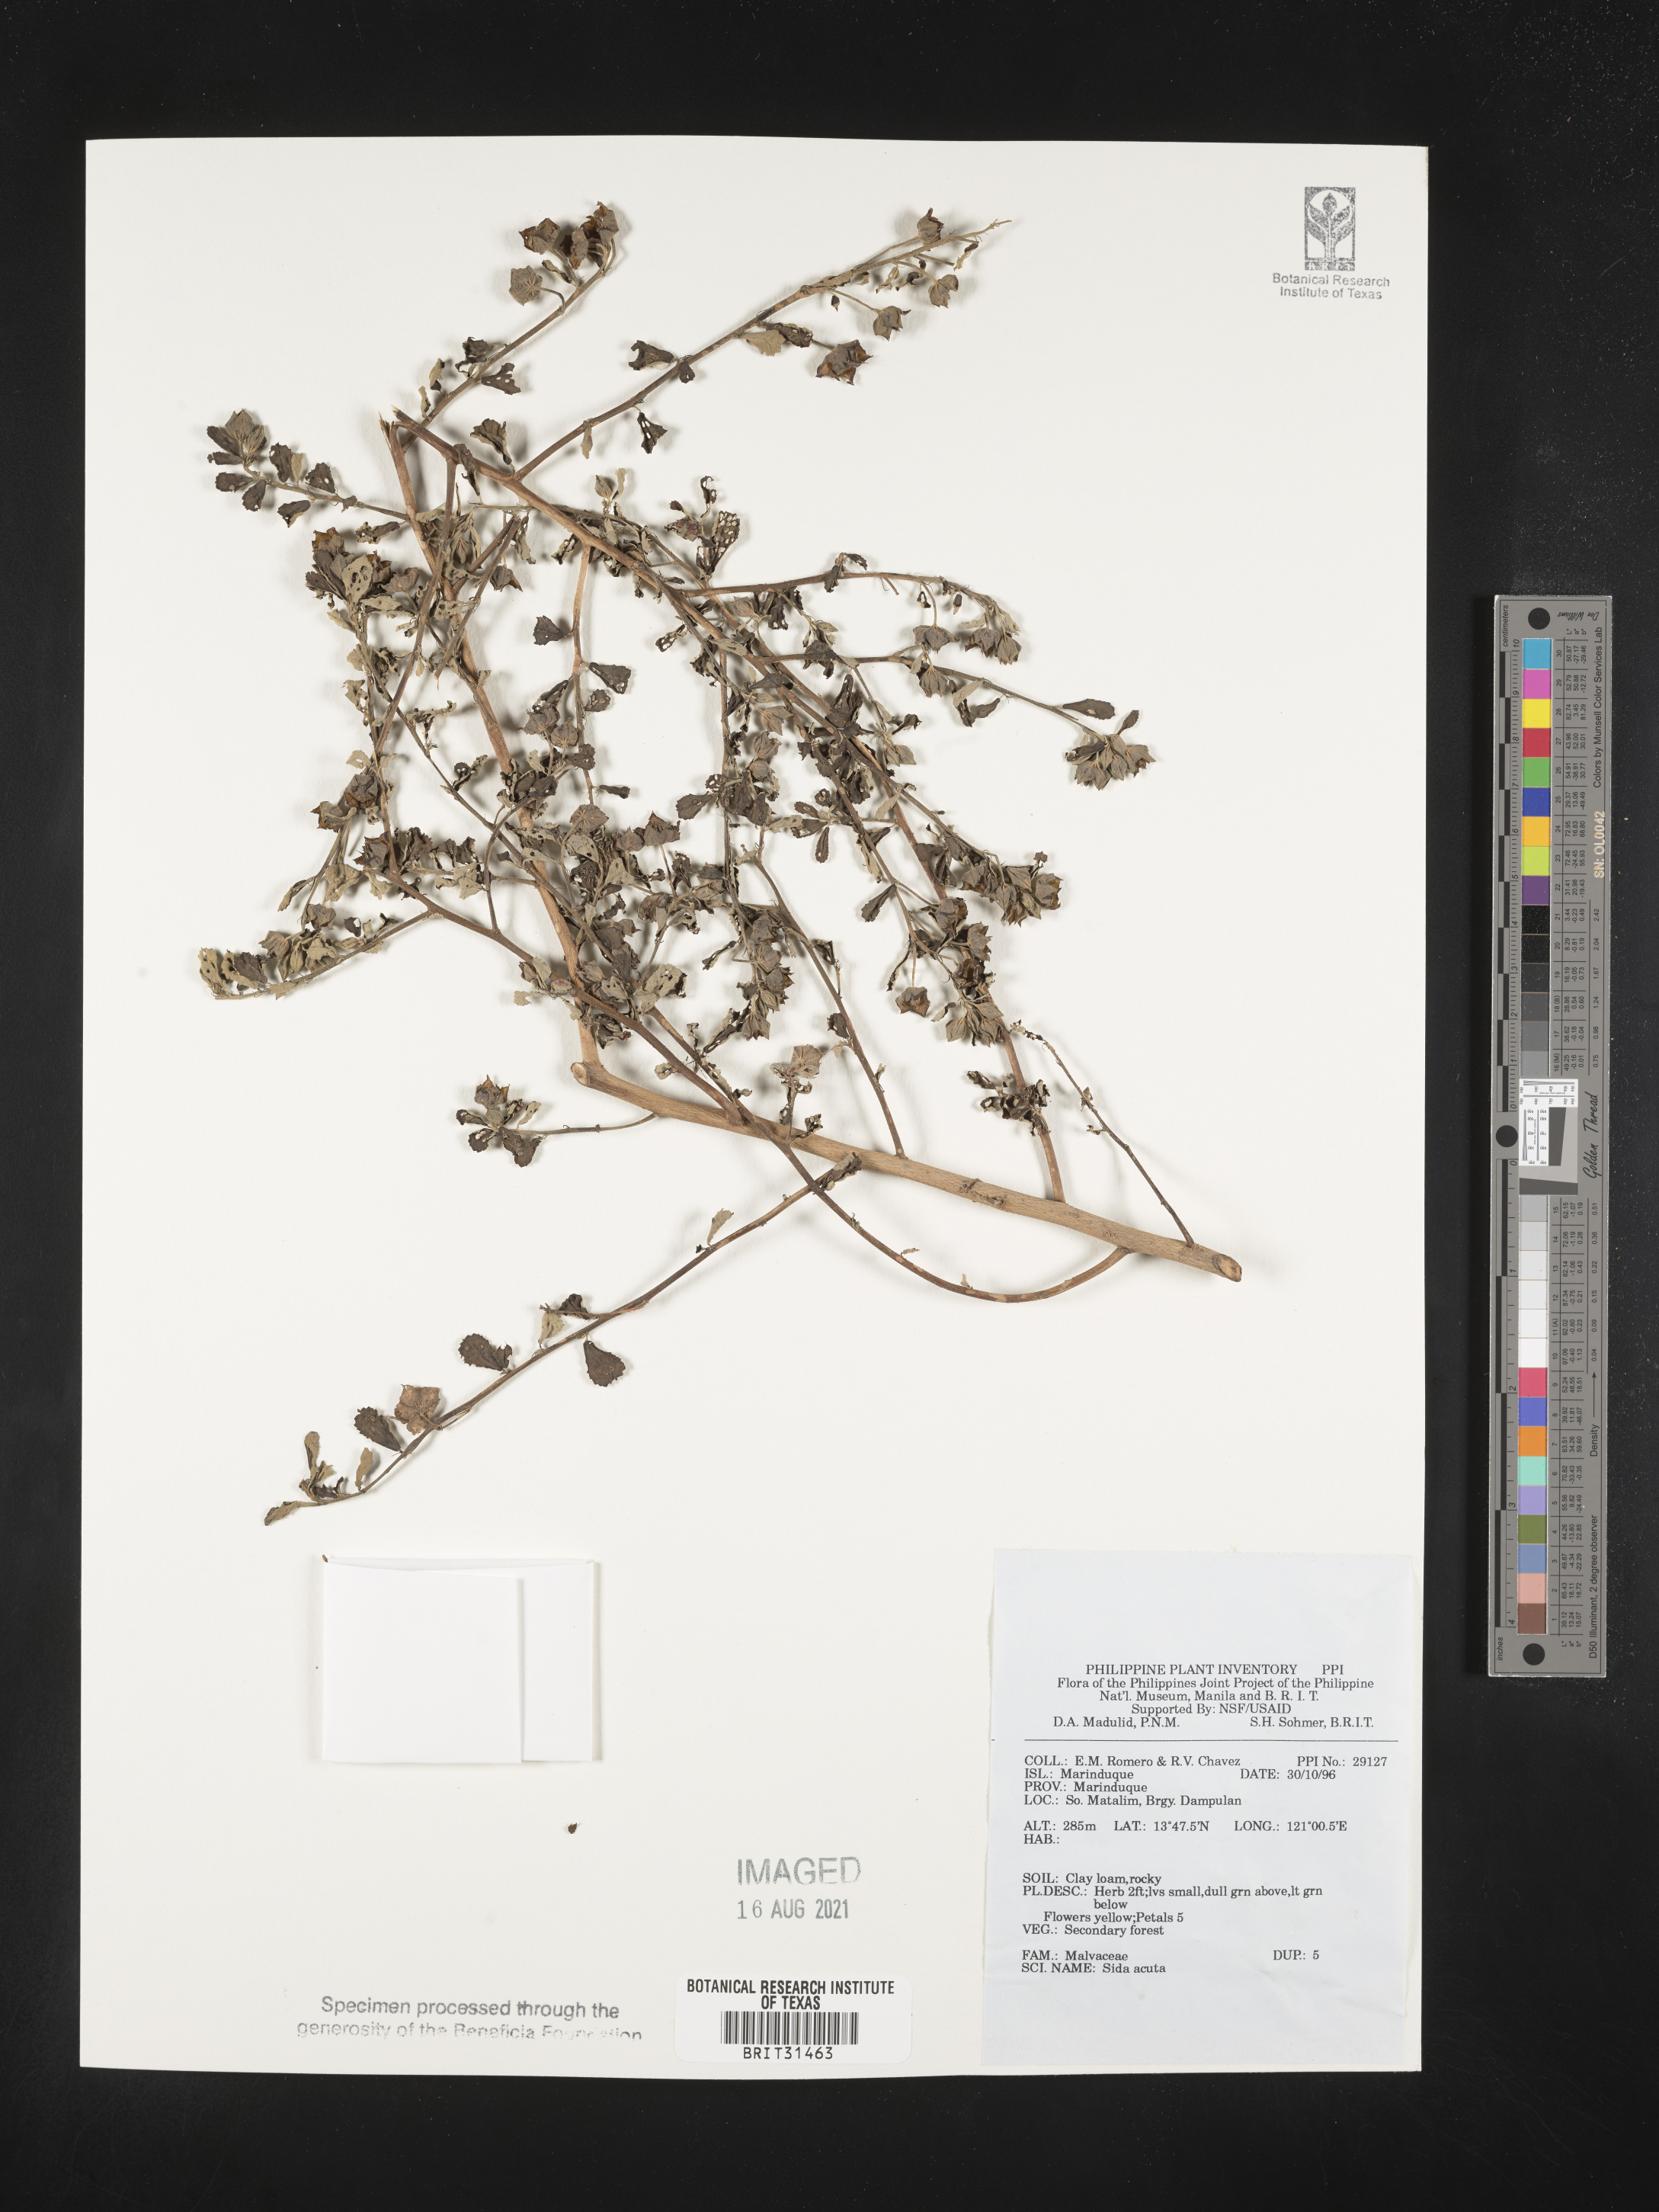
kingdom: Plantae
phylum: Tracheophyta
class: Magnoliopsida
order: Malvales
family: Malvaceae
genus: Sida
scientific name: Sida acuta
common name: Common wireweed
